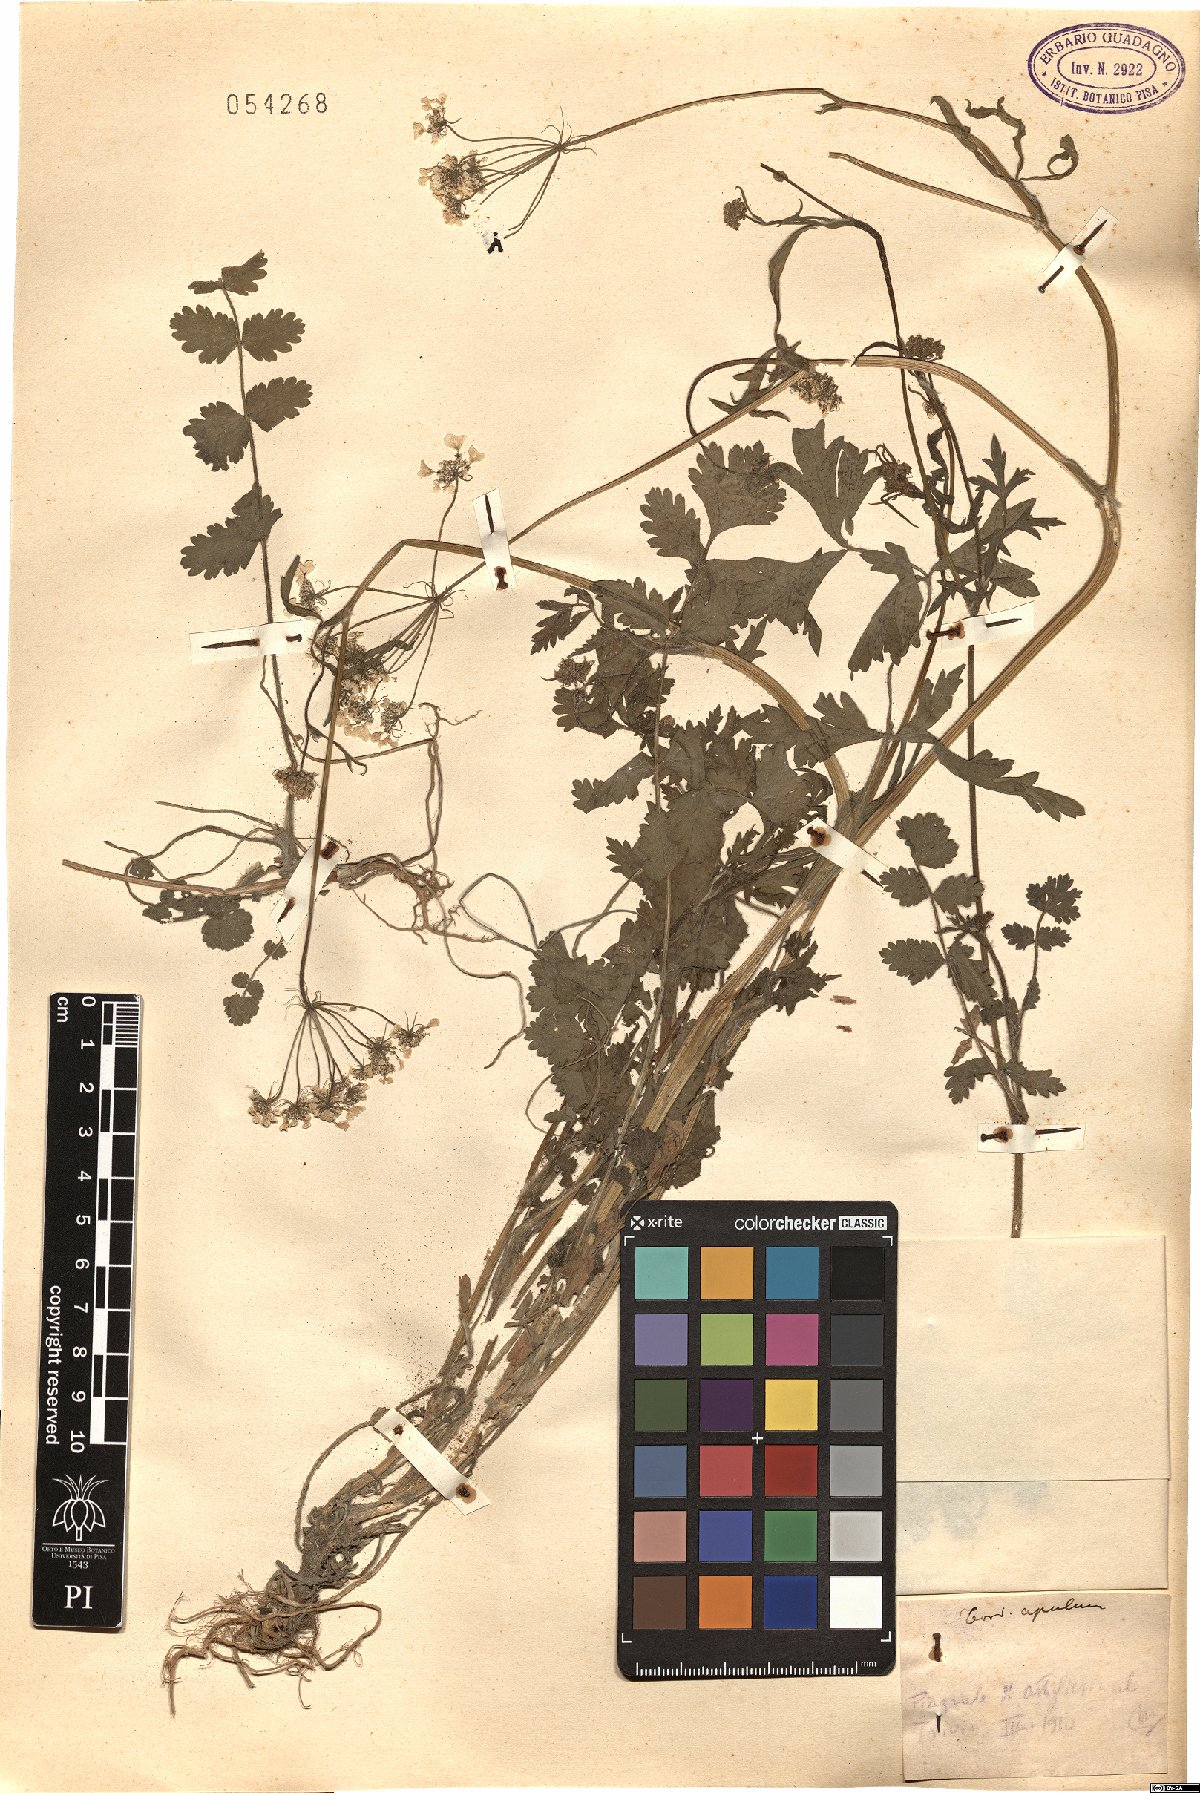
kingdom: Plantae
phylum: Tracheophyta
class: Magnoliopsida
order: Apiales
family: Apiaceae
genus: Tordylium
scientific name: Tordylium apulum
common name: Mediterranean hartwort
